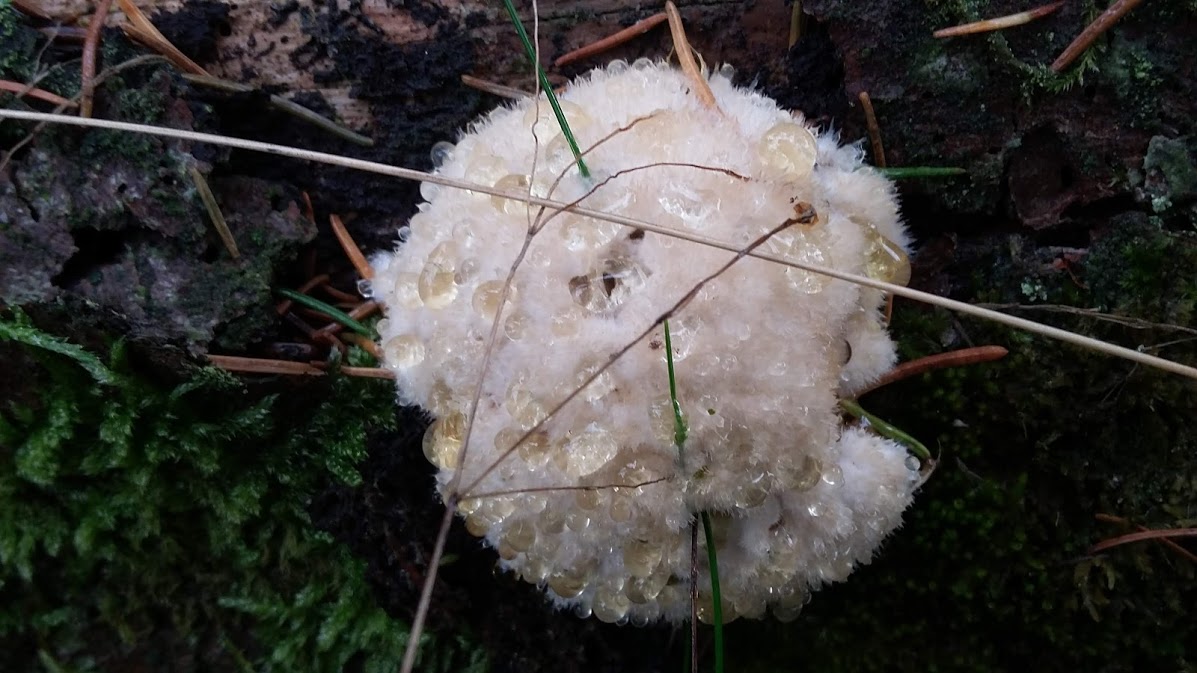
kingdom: Fungi
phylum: Basidiomycota
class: Agaricomycetes
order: Polyporales
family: Dacryobolaceae
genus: Postia
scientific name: Postia ptychogaster
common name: støvende kødporesvamp
